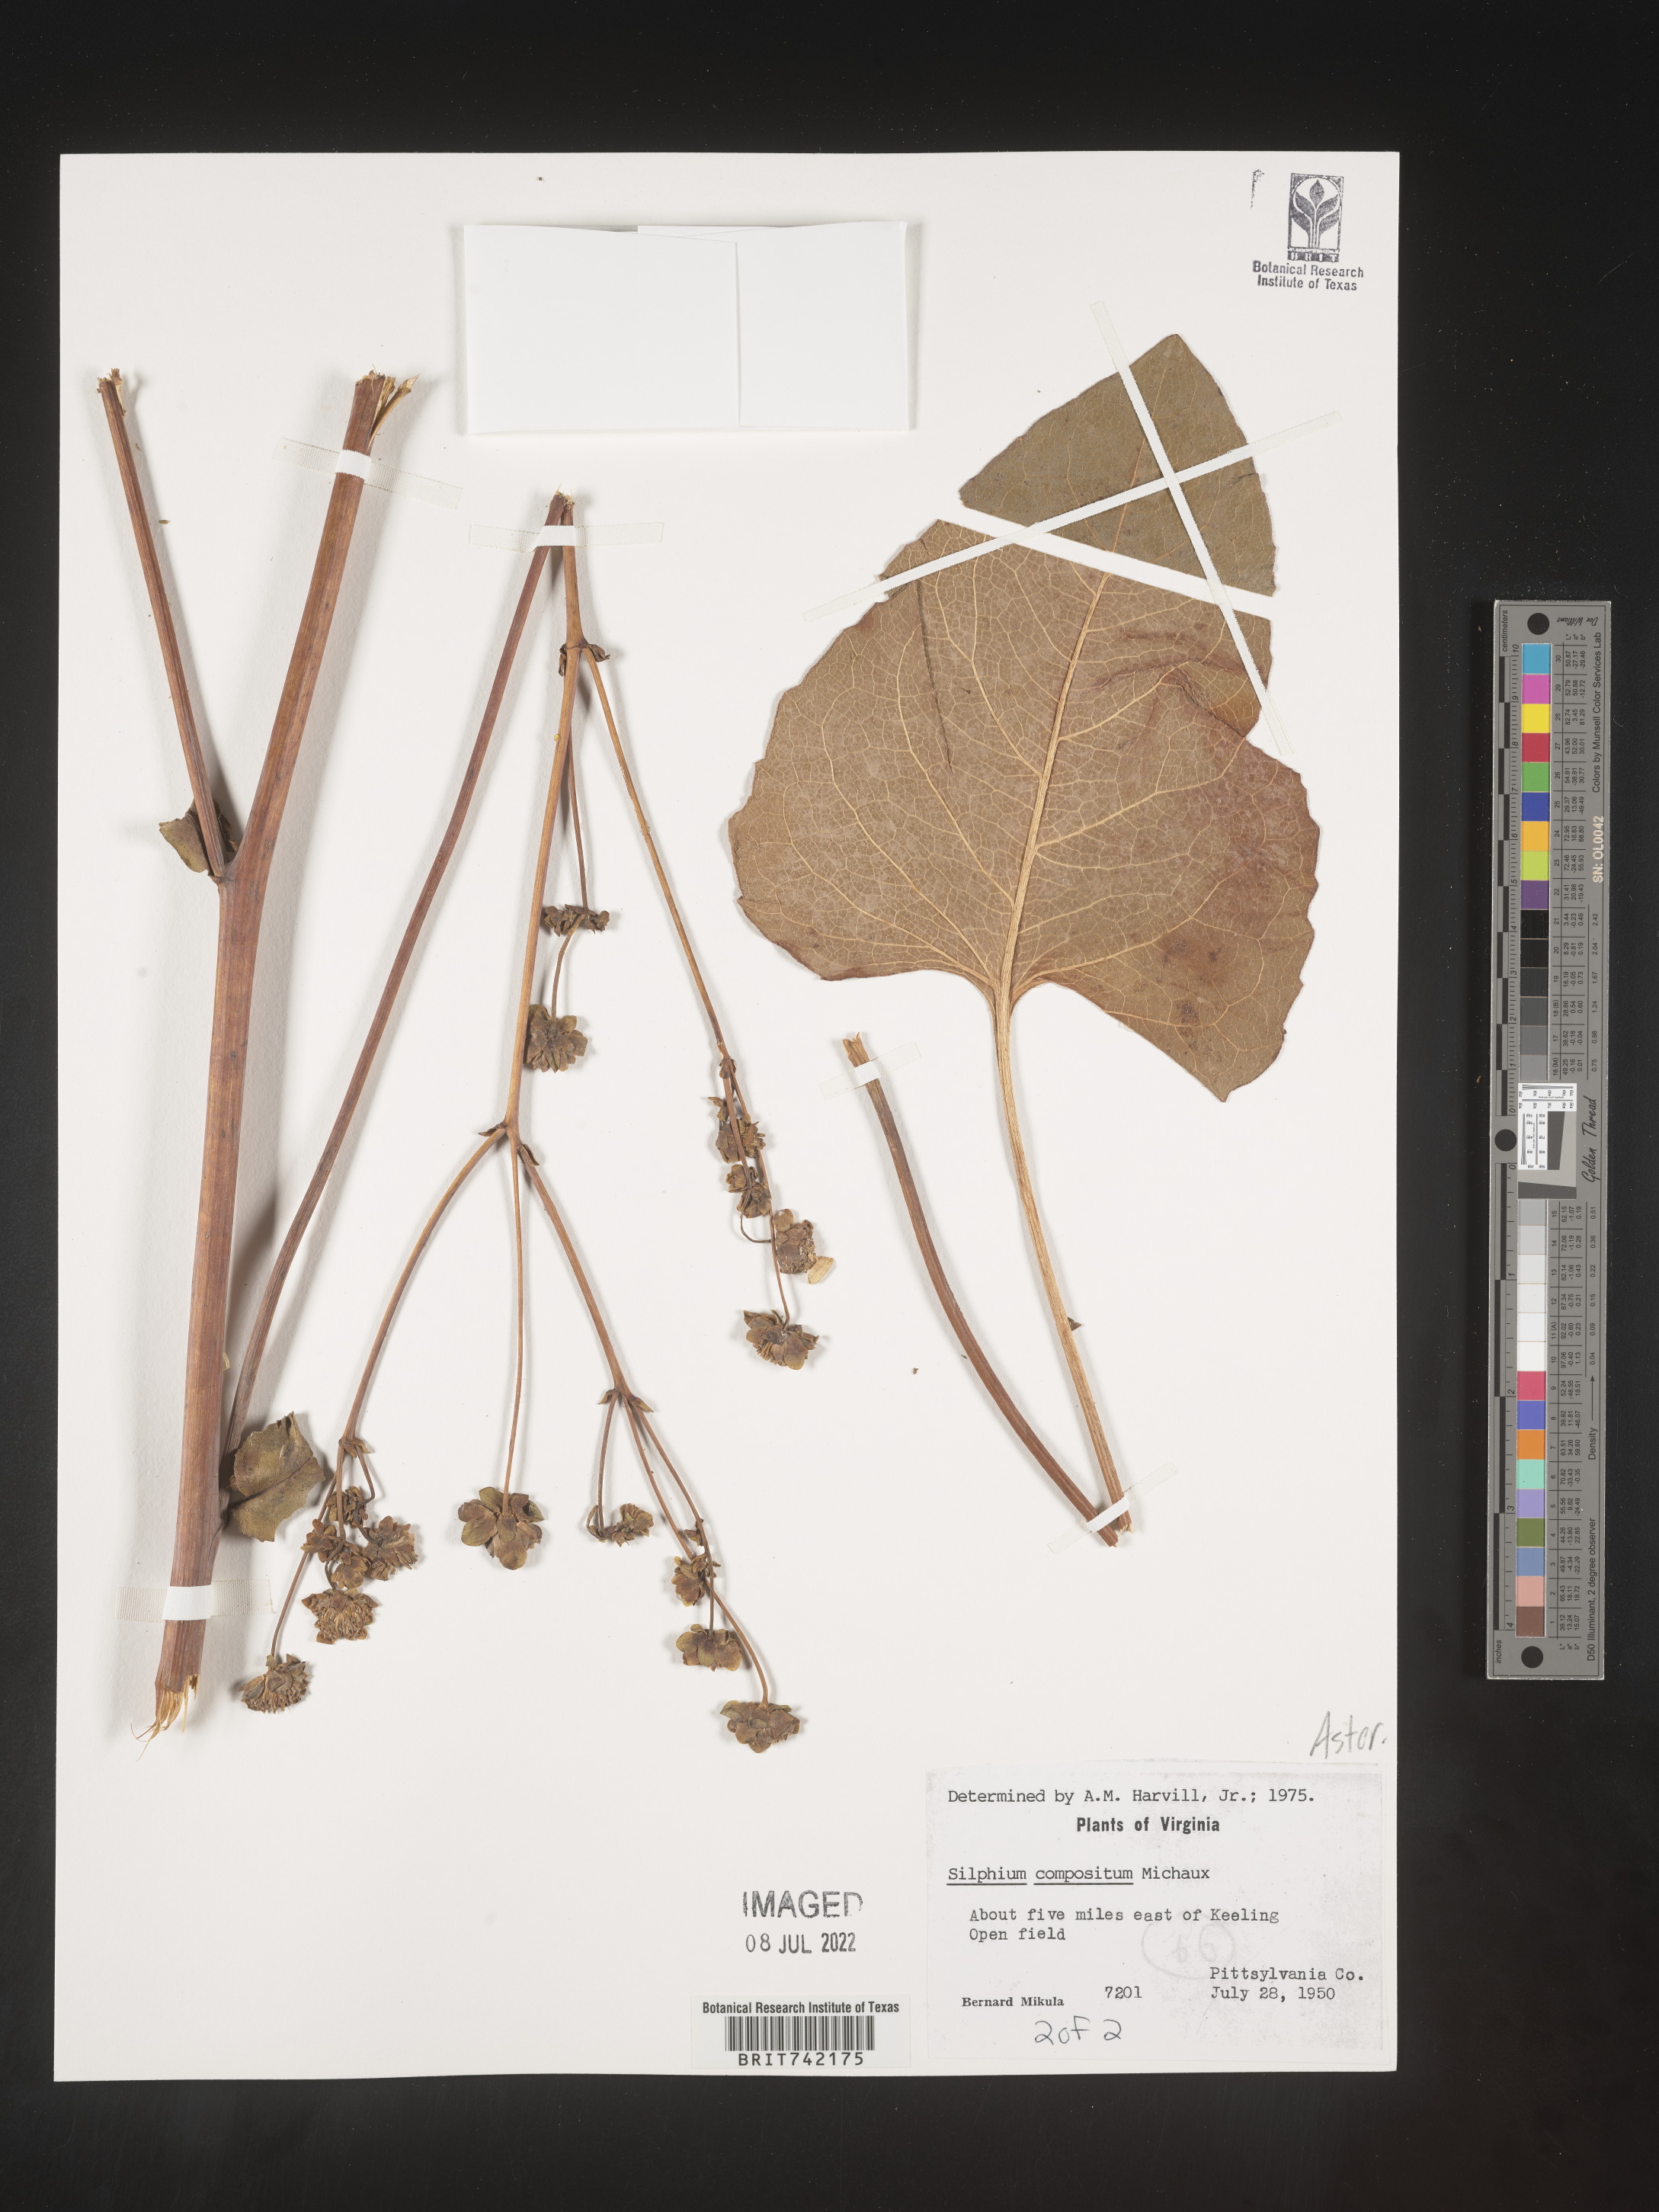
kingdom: Plantae
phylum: Tracheophyta
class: Magnoliopsida
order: Asterales
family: Asteraceae
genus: Silphium
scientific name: Silphium
